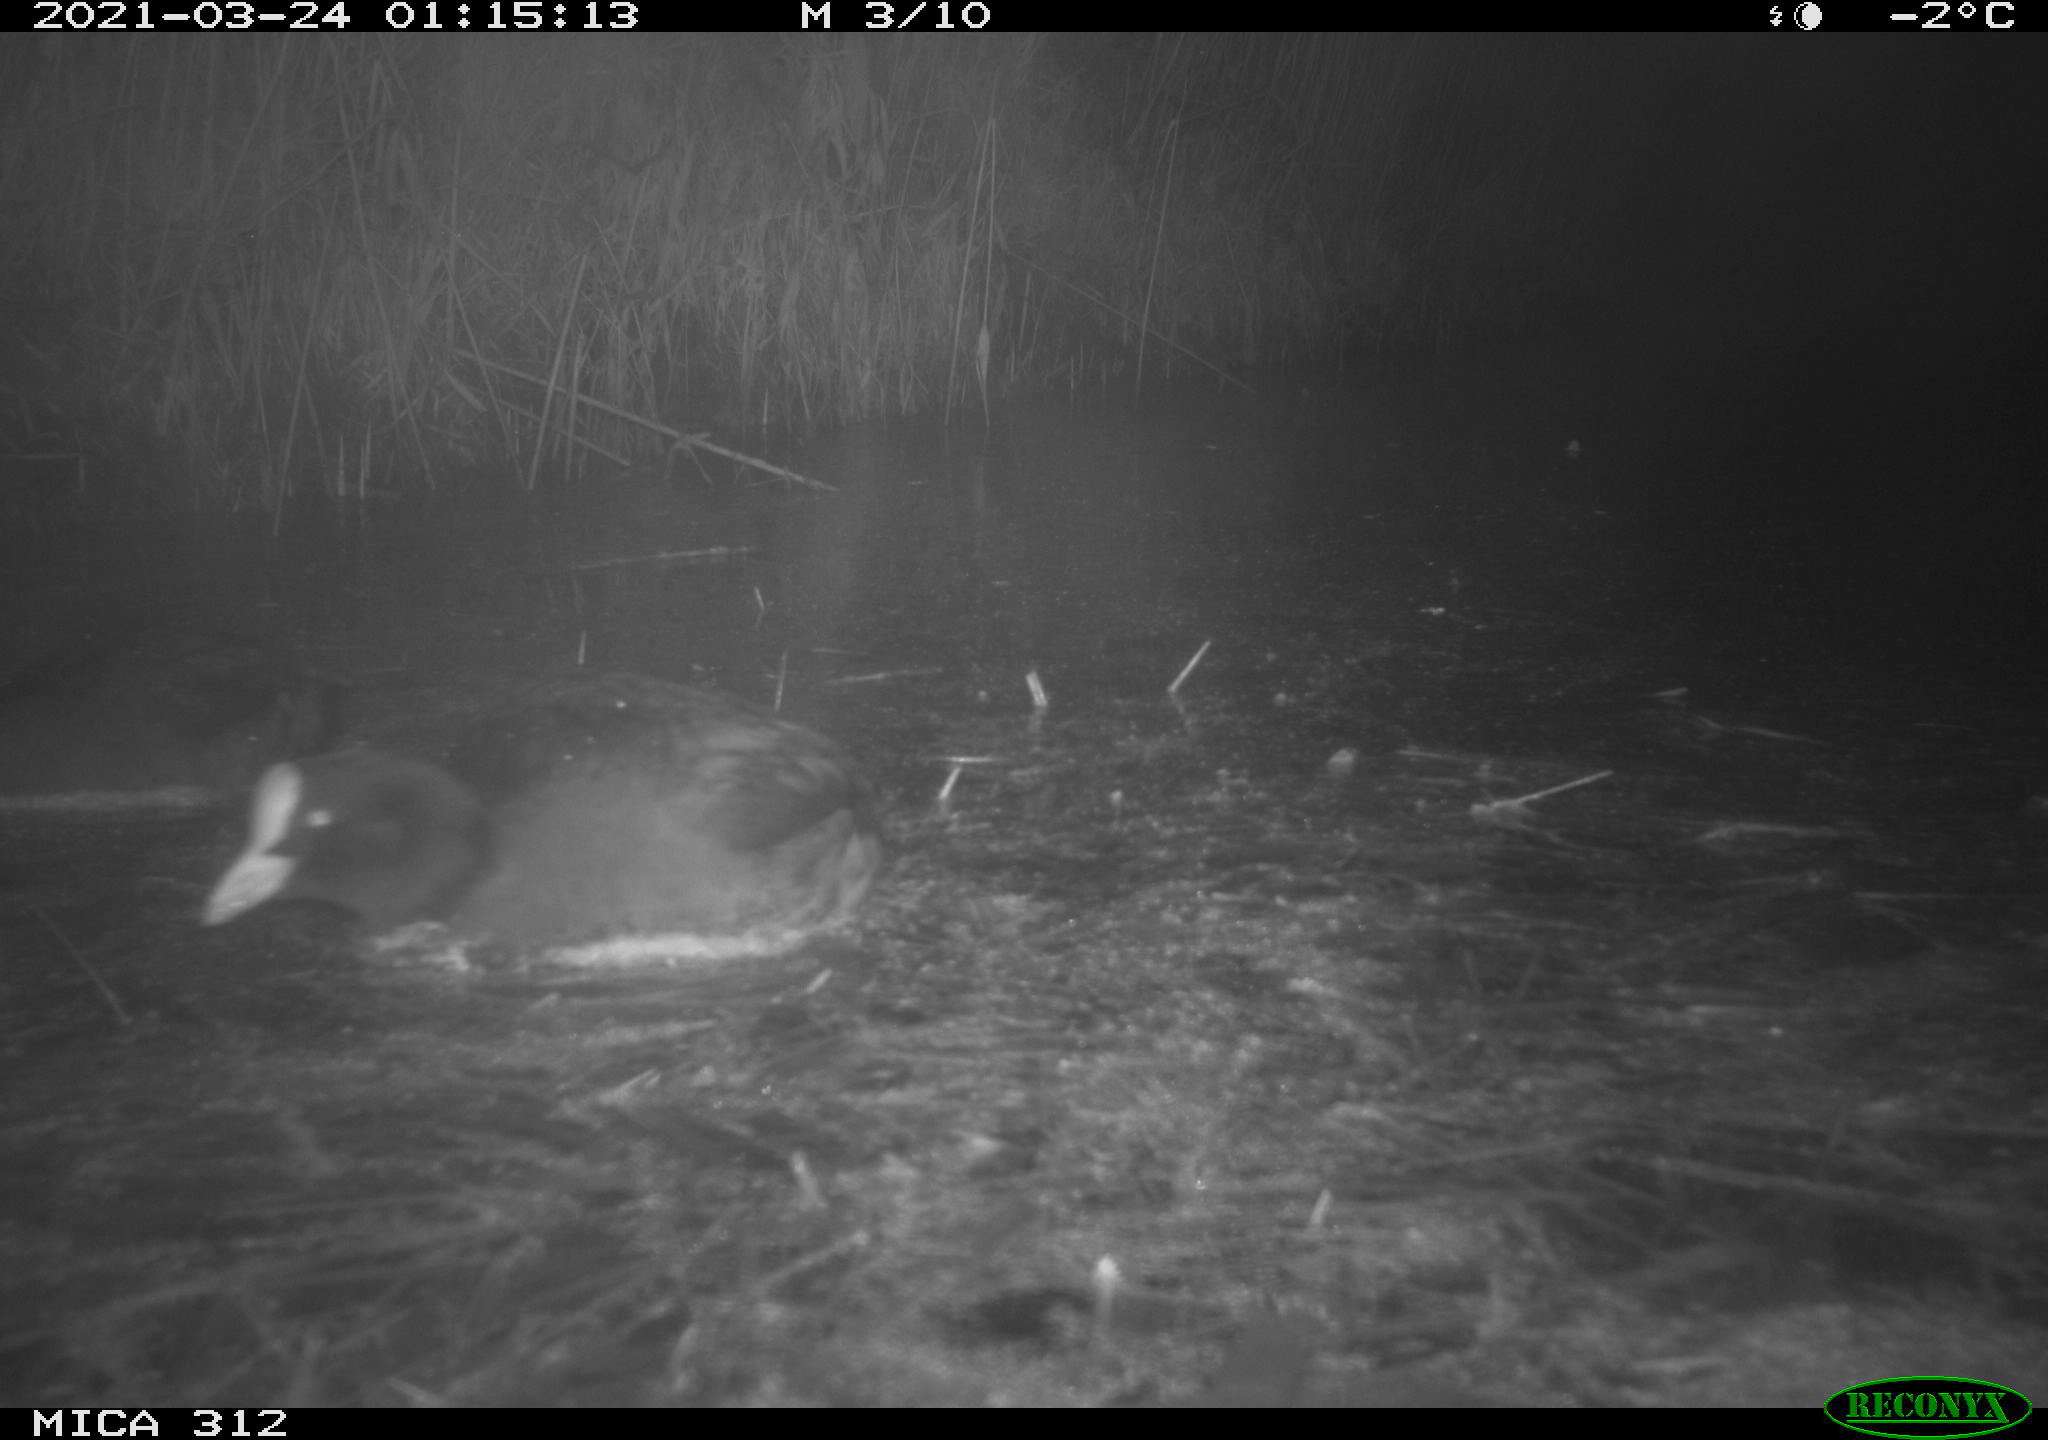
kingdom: Animalia
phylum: Chordata
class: Aves
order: Gruiformes
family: Rallidae
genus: Fulica
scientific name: Fulica atra
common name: Eurasian coot
